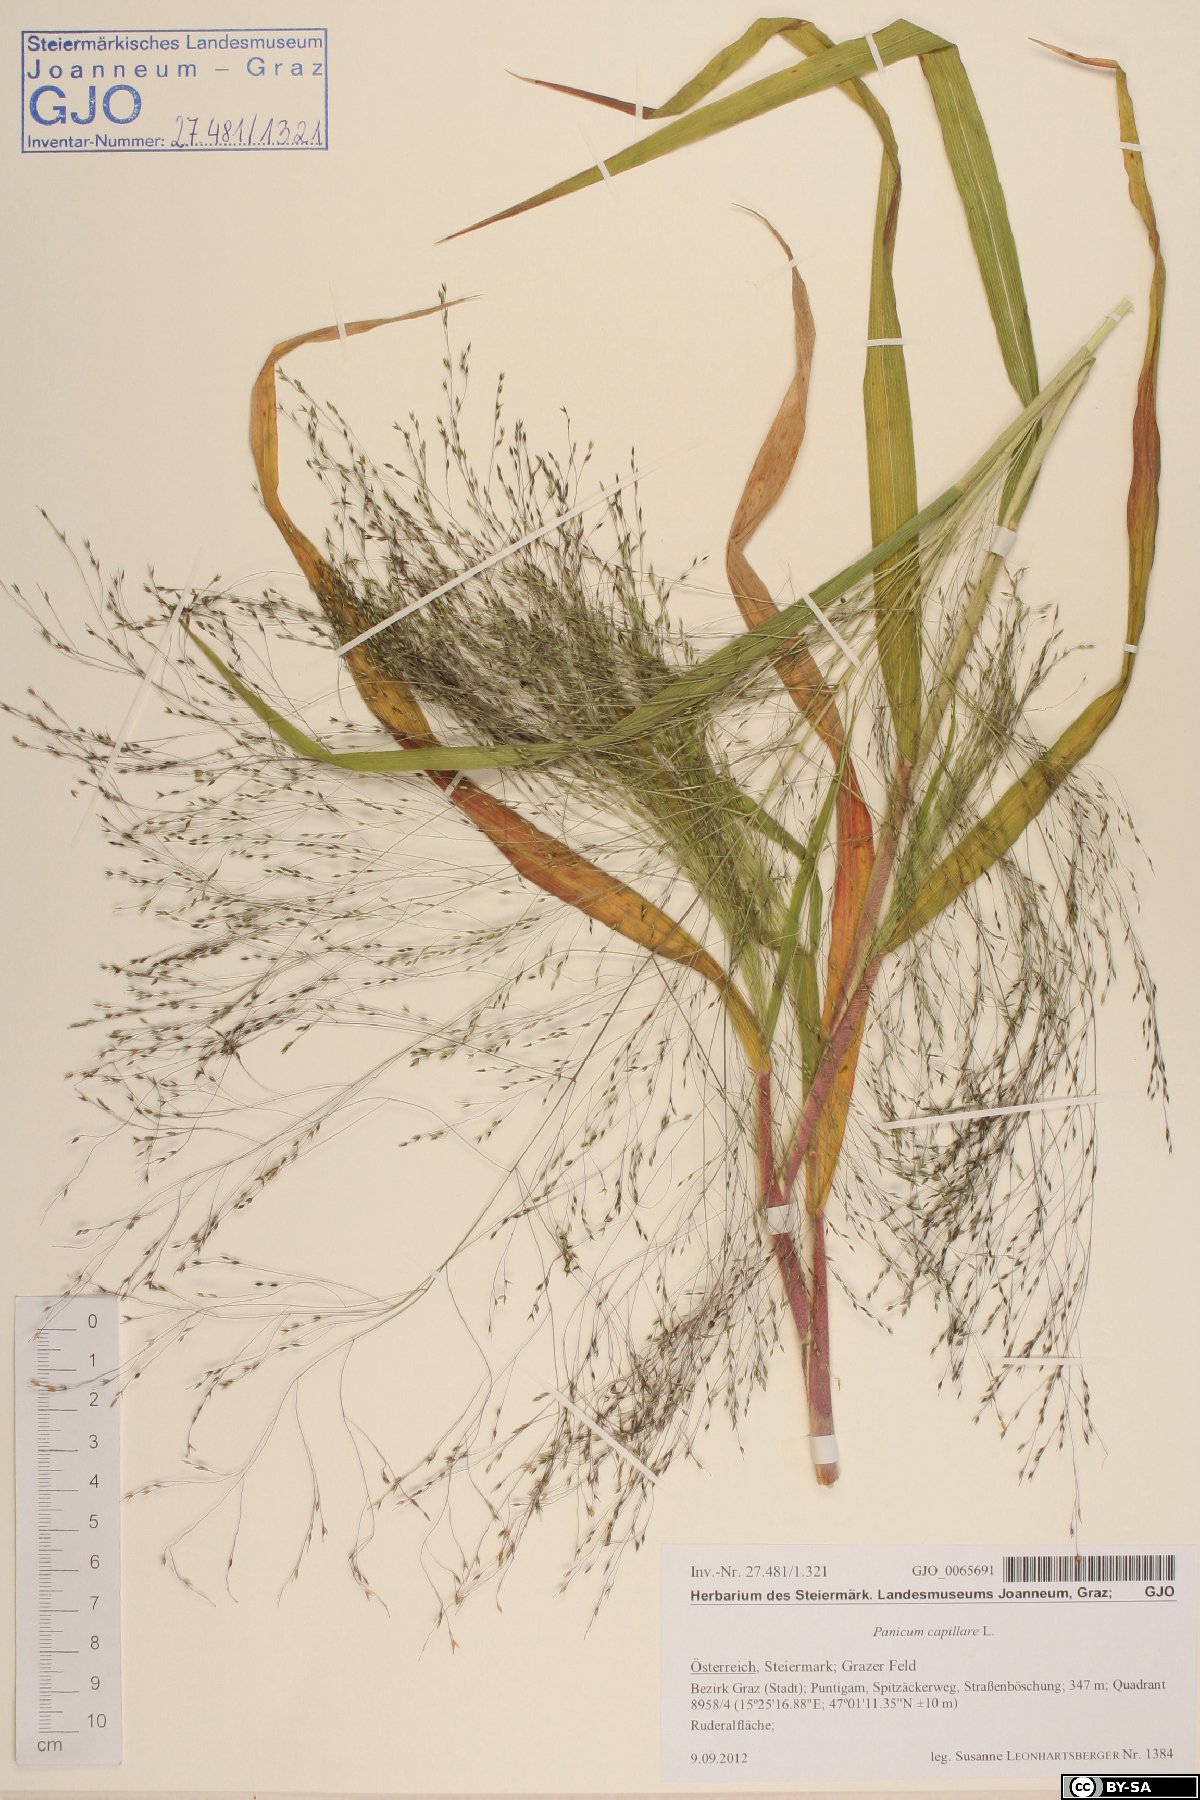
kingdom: Plantae
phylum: Tracheophyta
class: Liliopsida
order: Poales
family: Poaceae
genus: Panicum
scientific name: Panicum capillare
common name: Witch-grass
